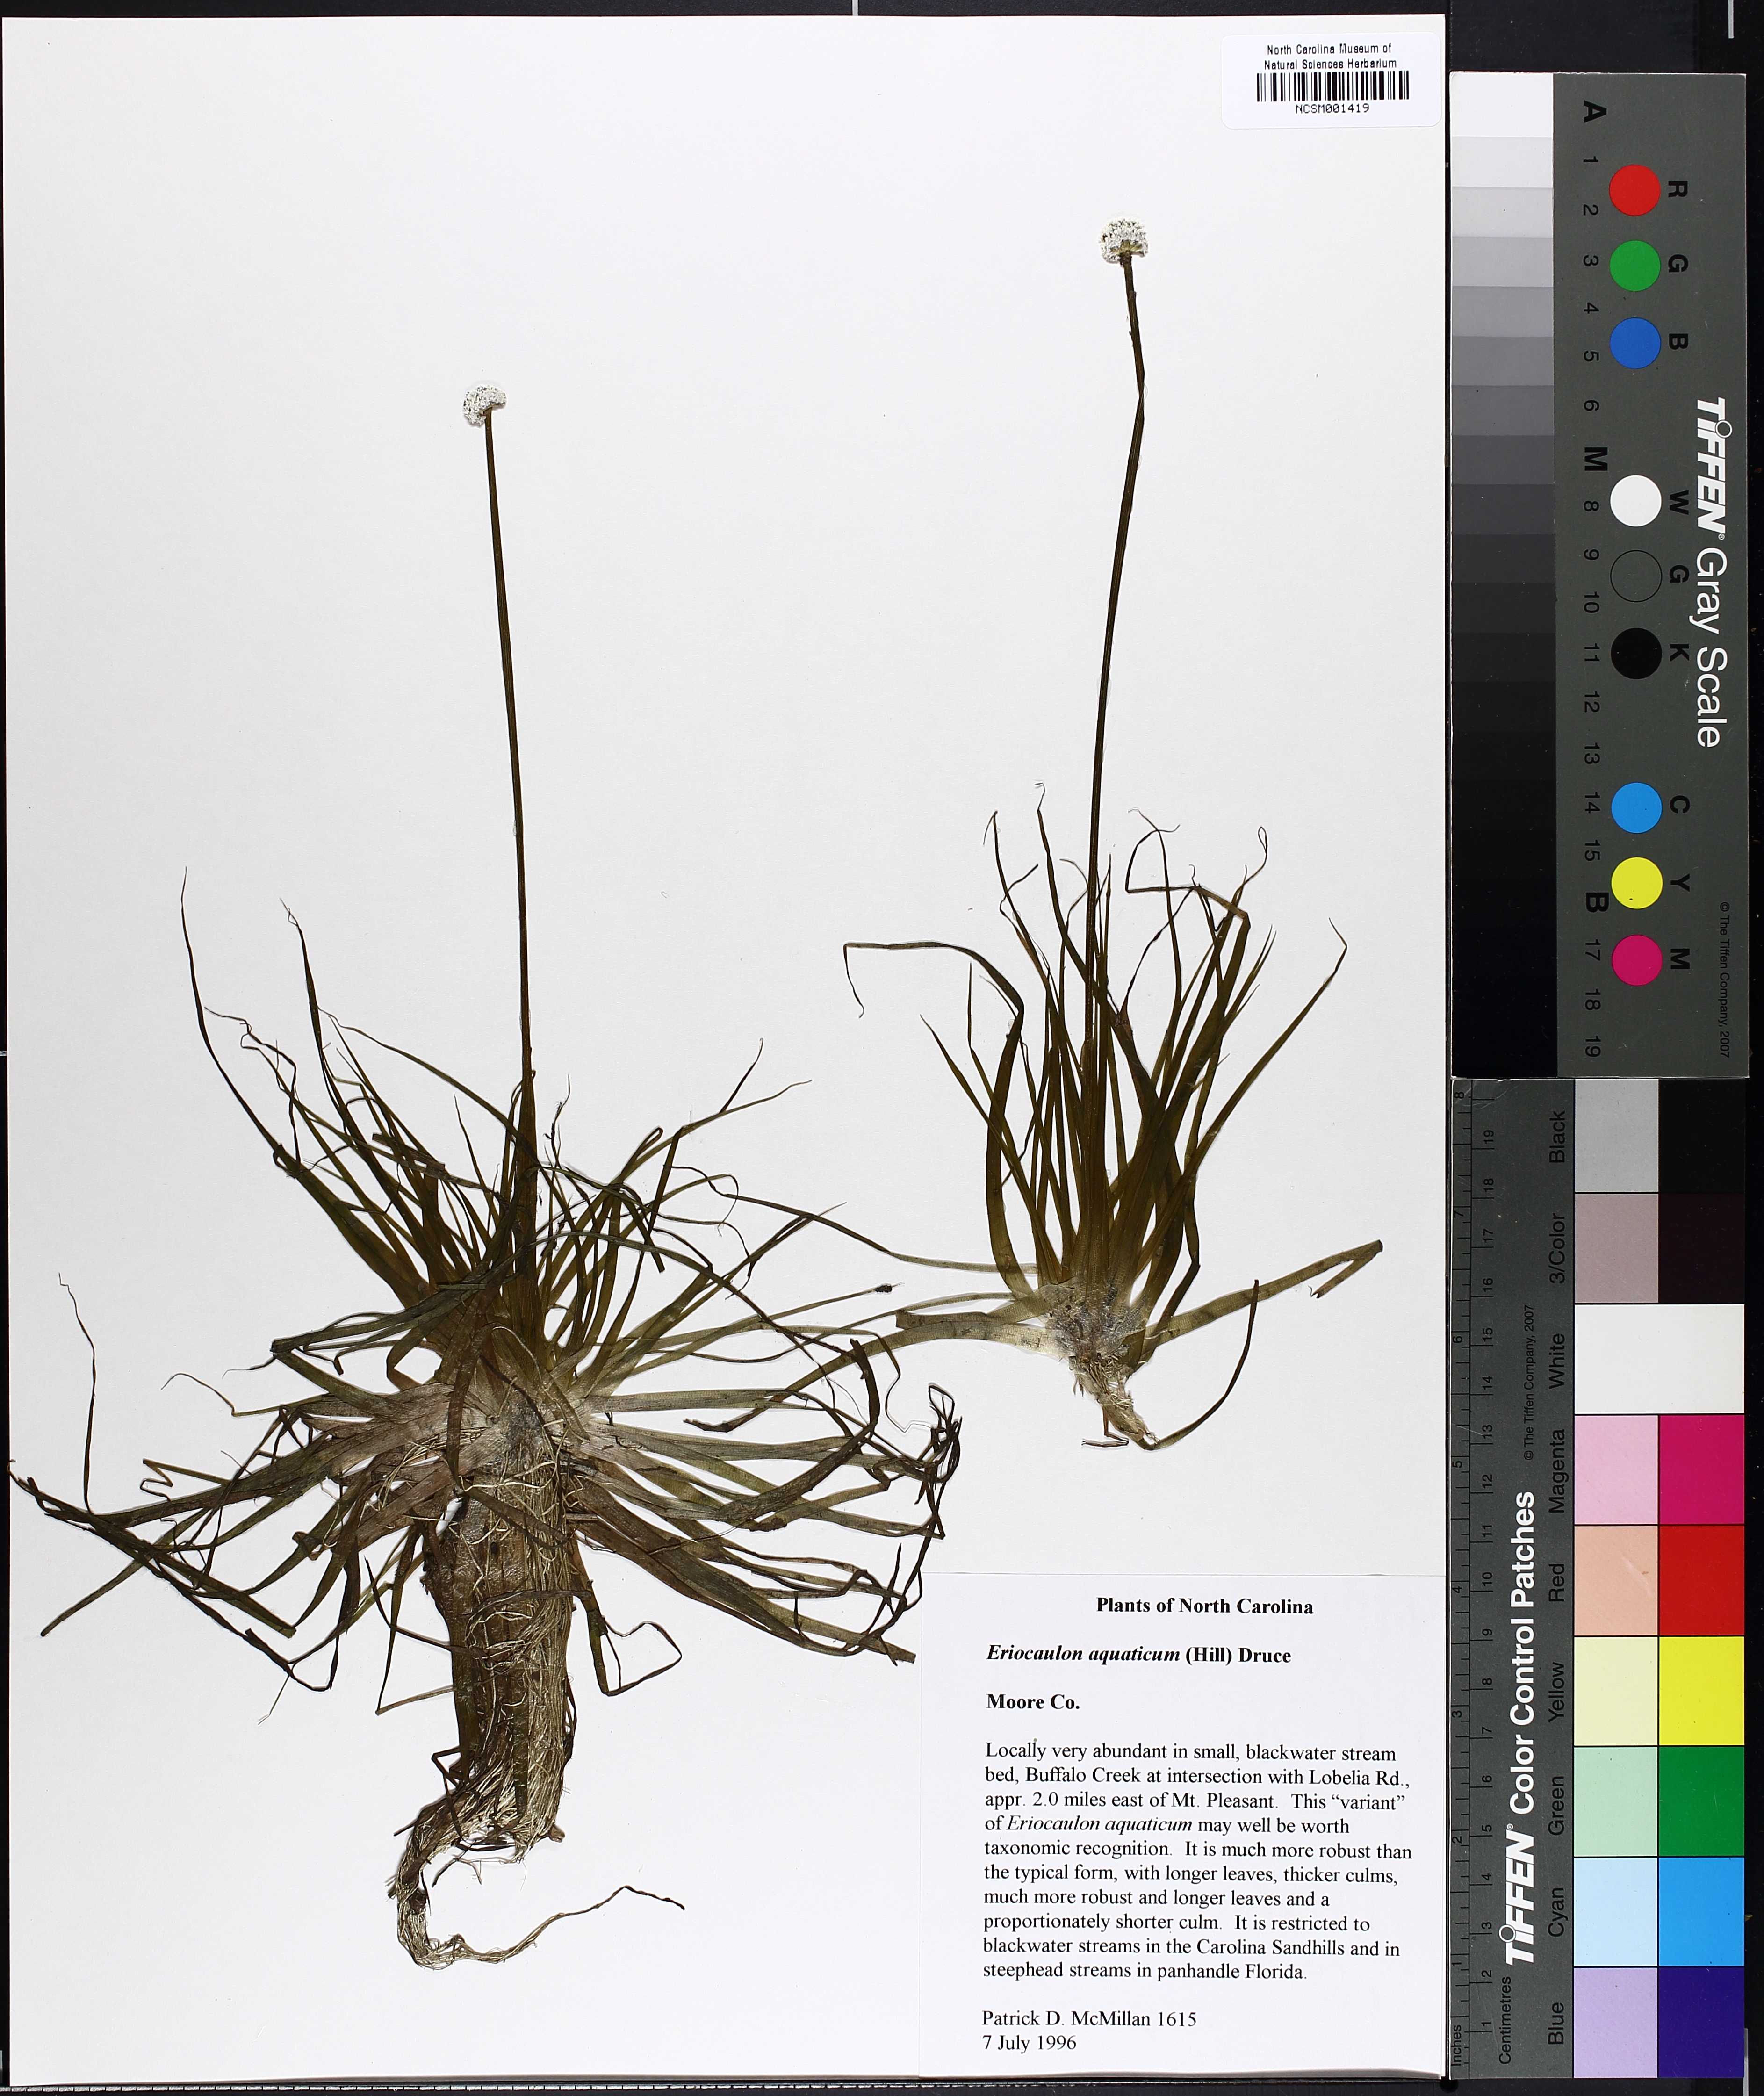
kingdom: Plantae
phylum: Tracheophyta
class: Liliopsida
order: Poales
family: Eriocaulaceae
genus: Eriocaulon
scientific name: Eriocaulon aquaticum
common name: Pipewort
